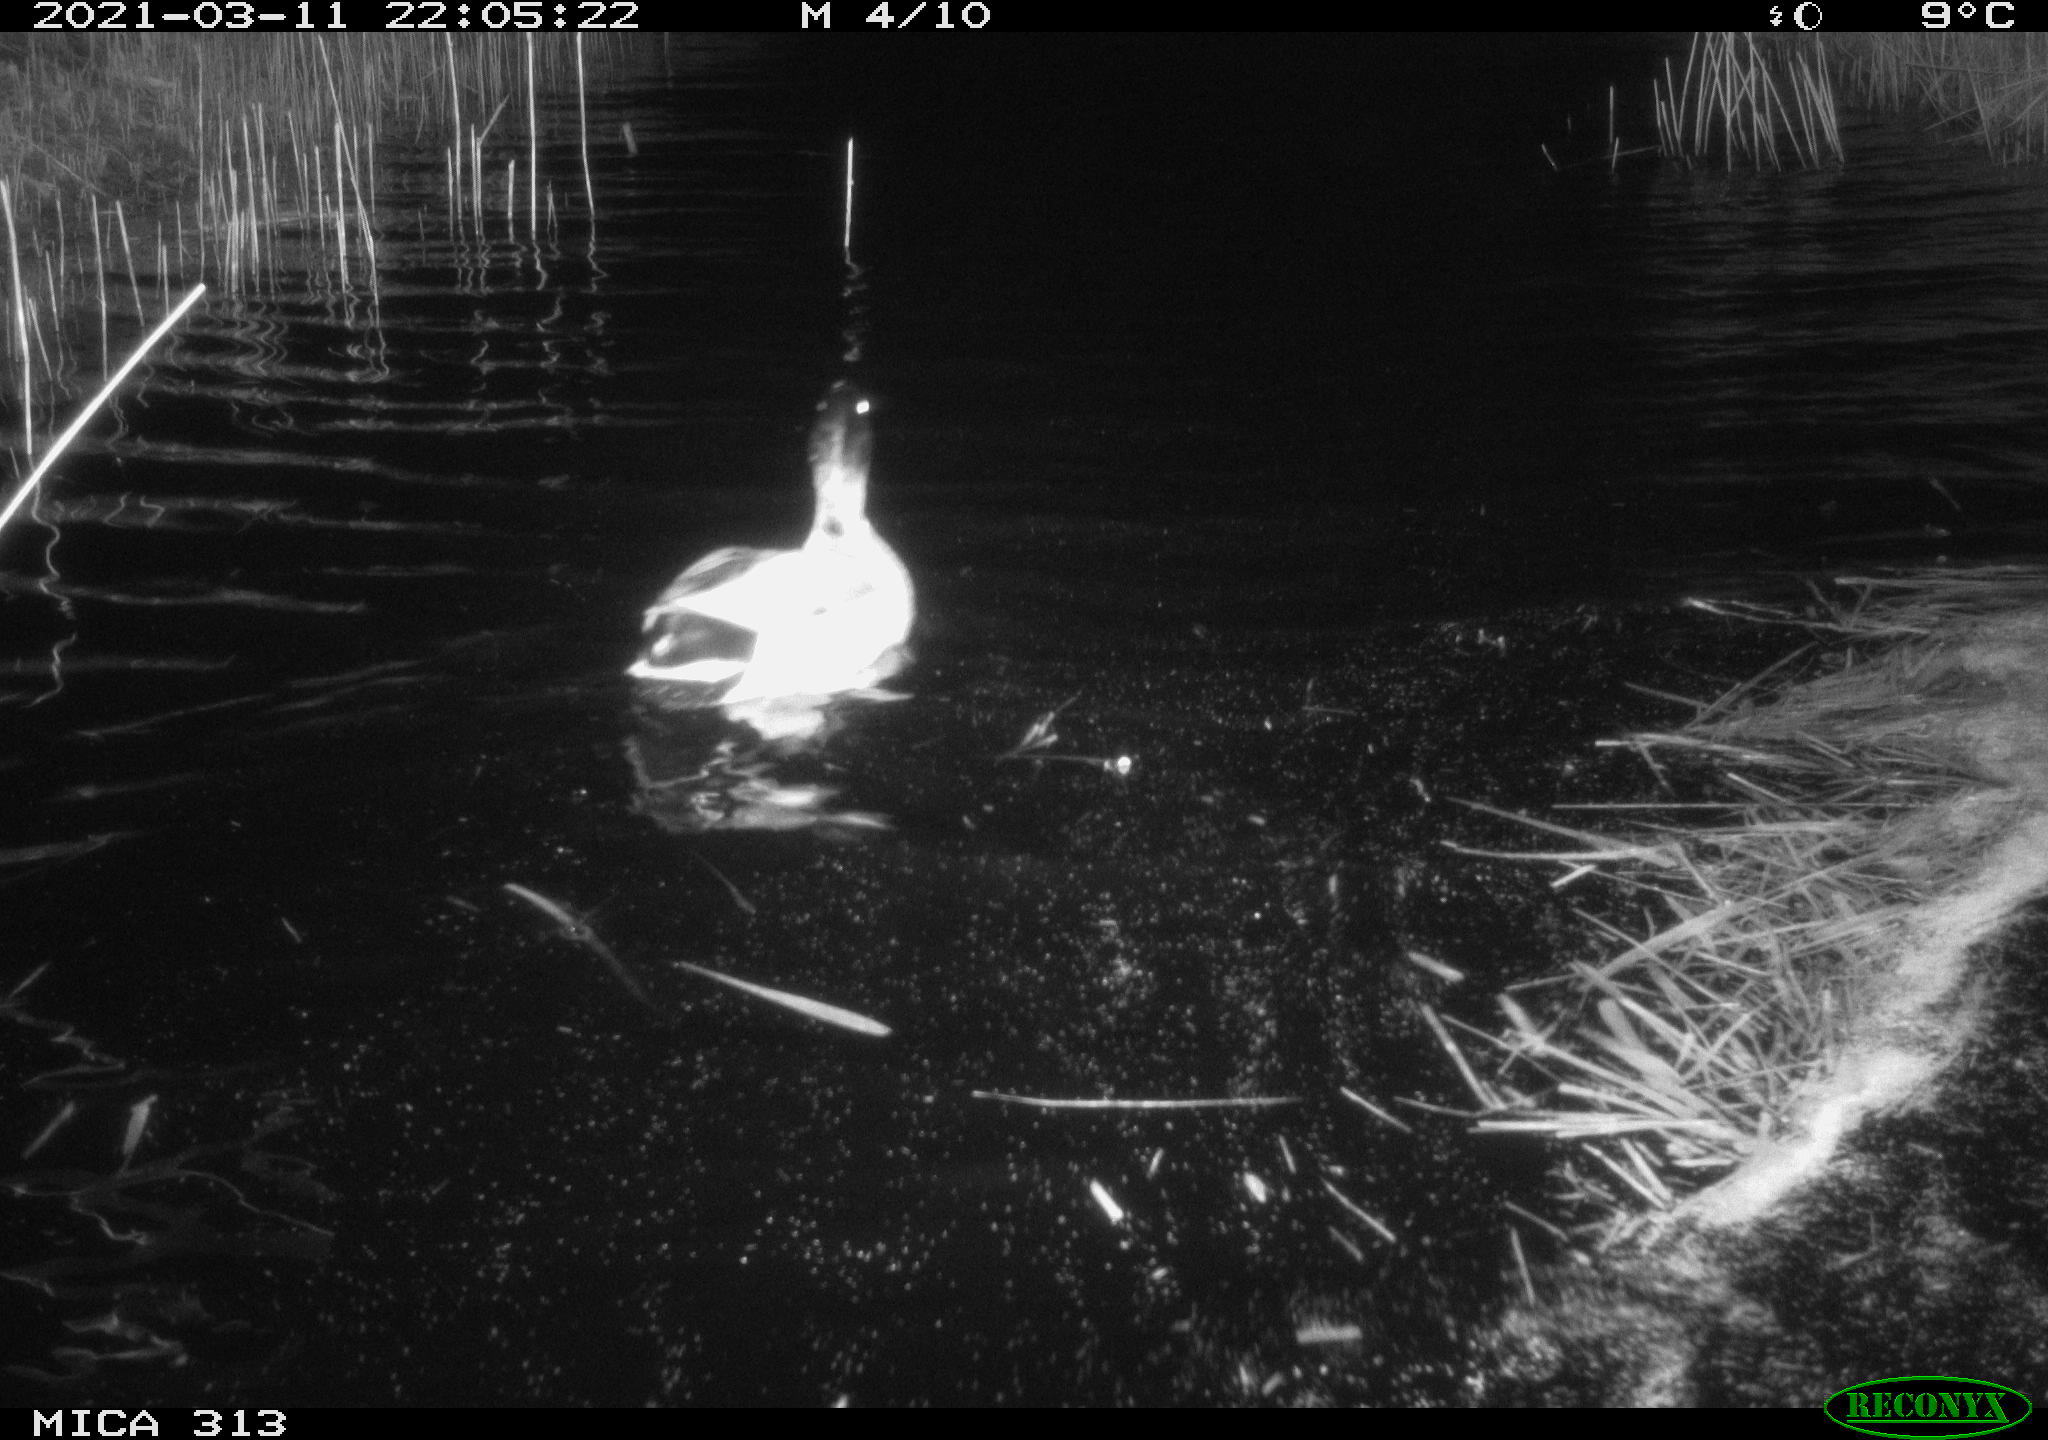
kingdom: Animalia
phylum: Chordata
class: Aves
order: Anseriformes
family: Anatidae
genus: Anas
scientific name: Anas platyrhynchos
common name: Mallard
